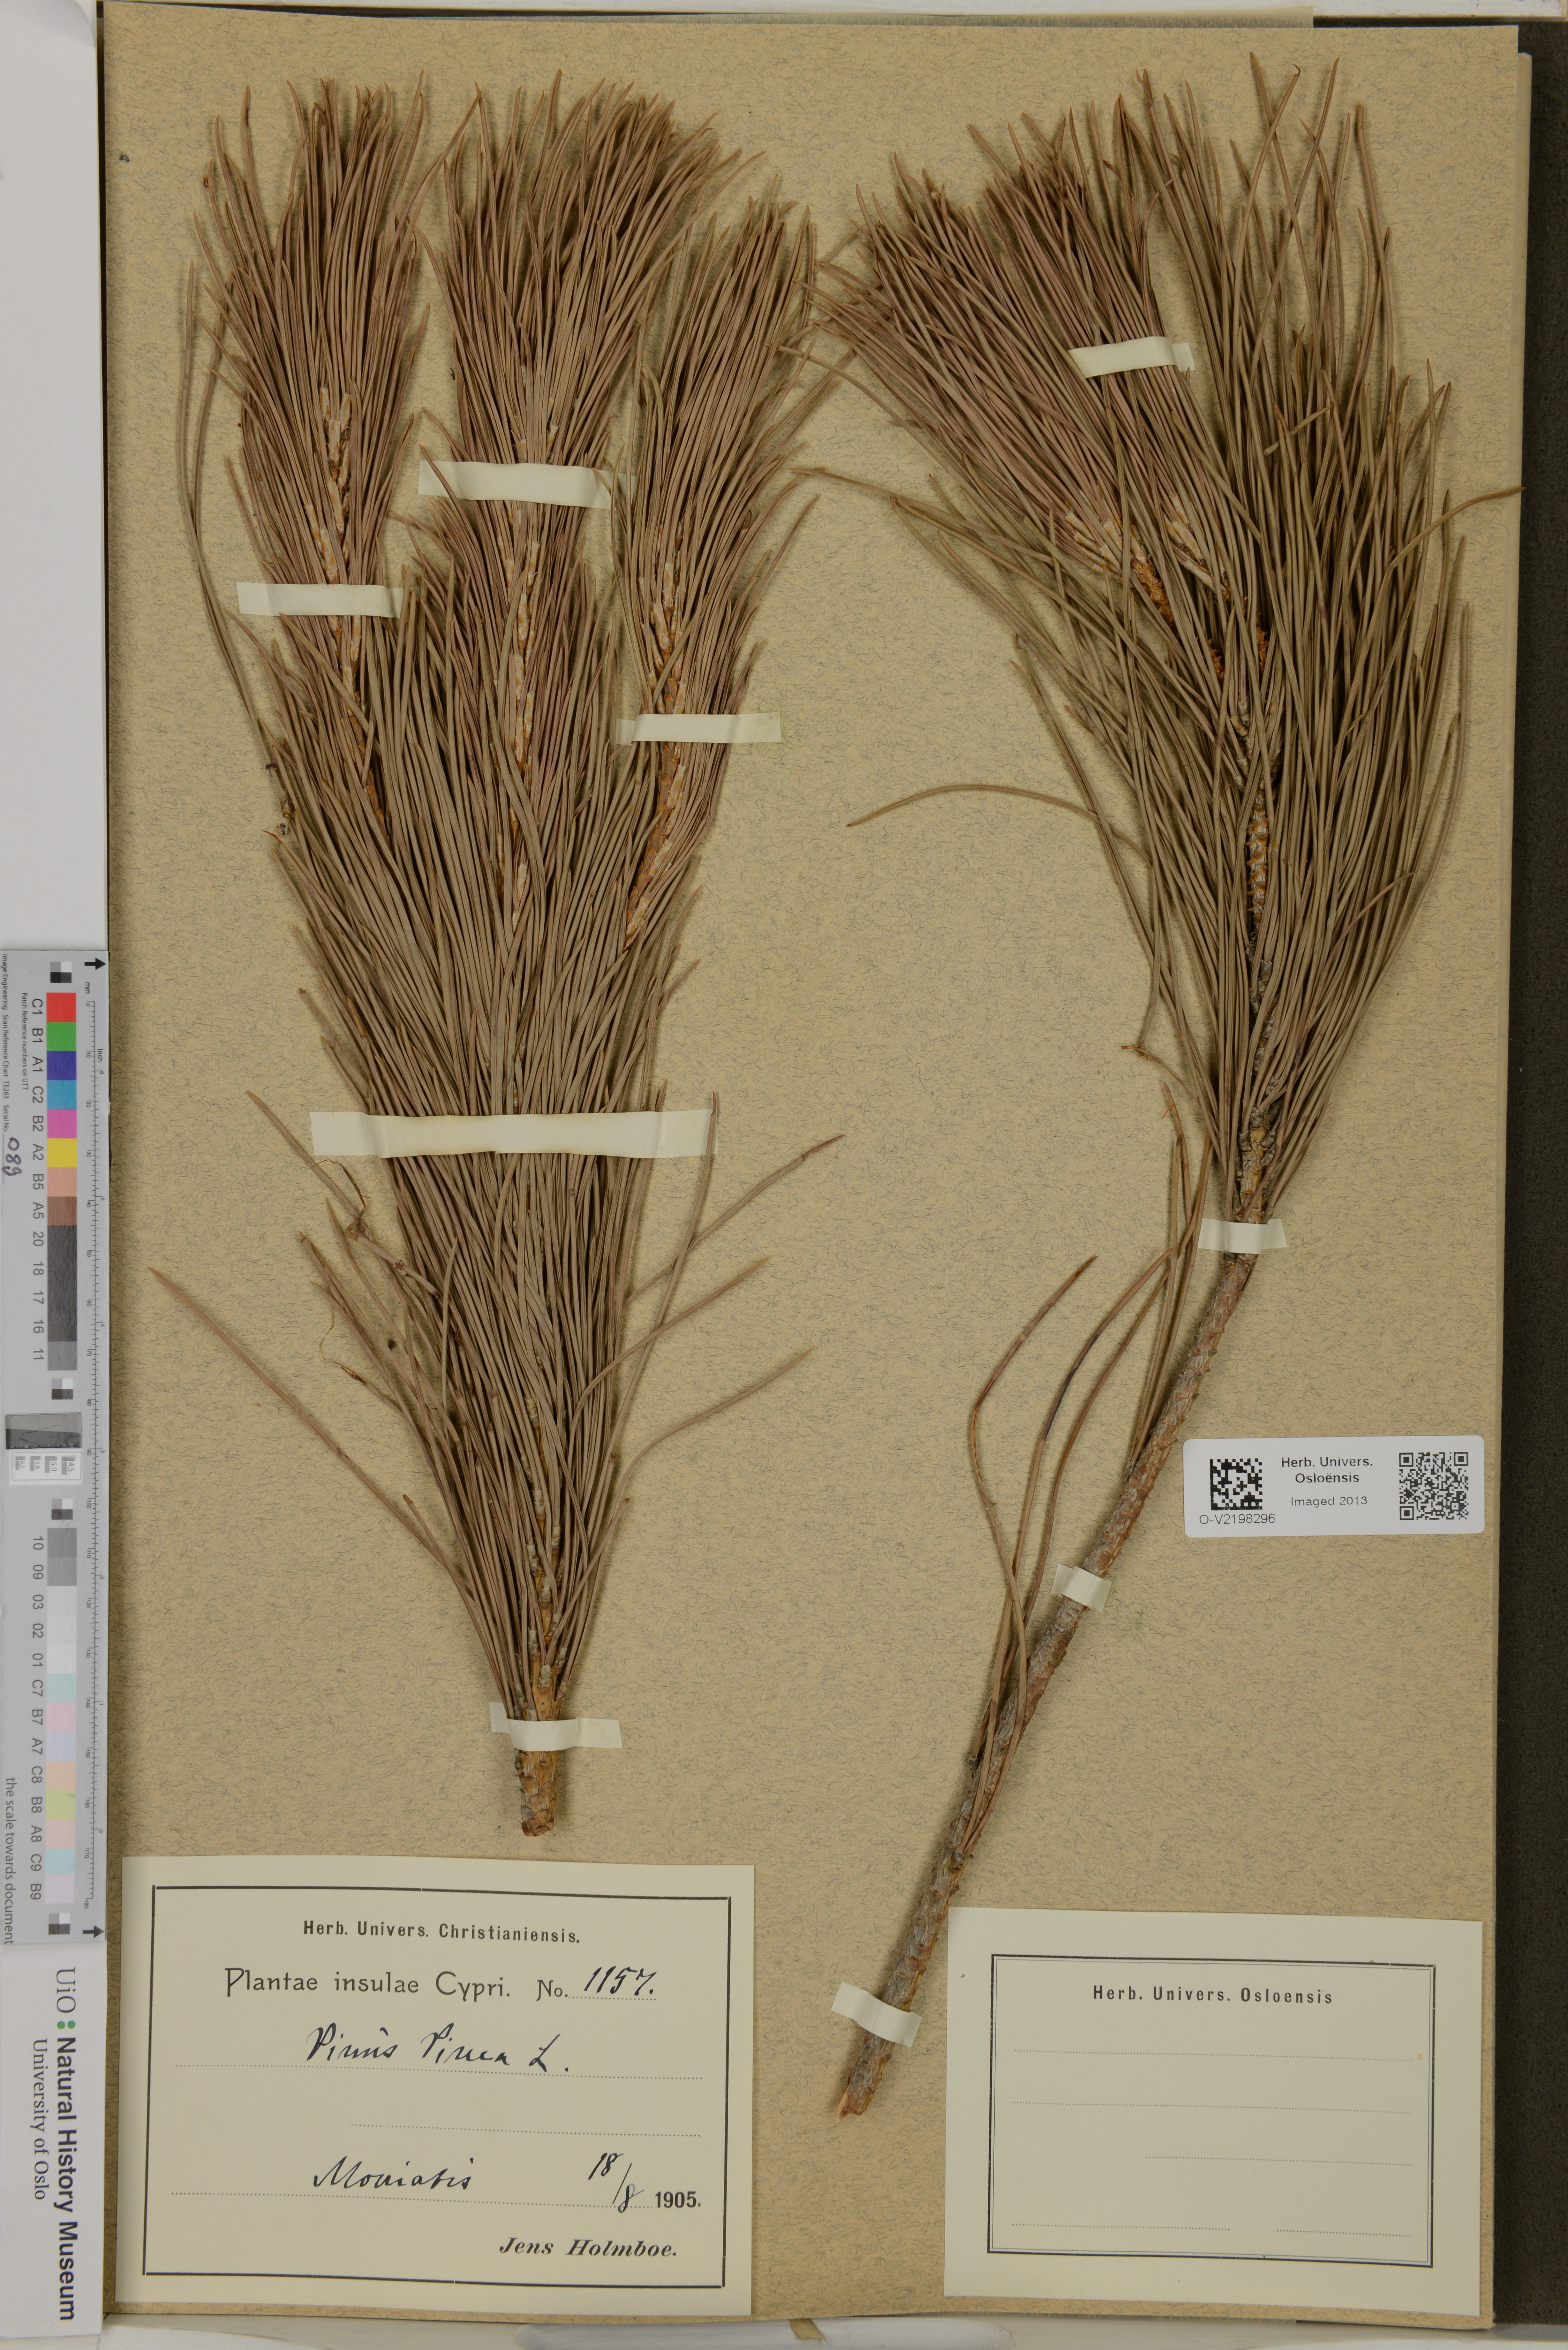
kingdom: Plantae
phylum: Tracheophyta
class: Pinopsida
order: Pinales
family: Pinaceae
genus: Pinus
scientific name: Pinus pinea
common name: Italian stone pine
